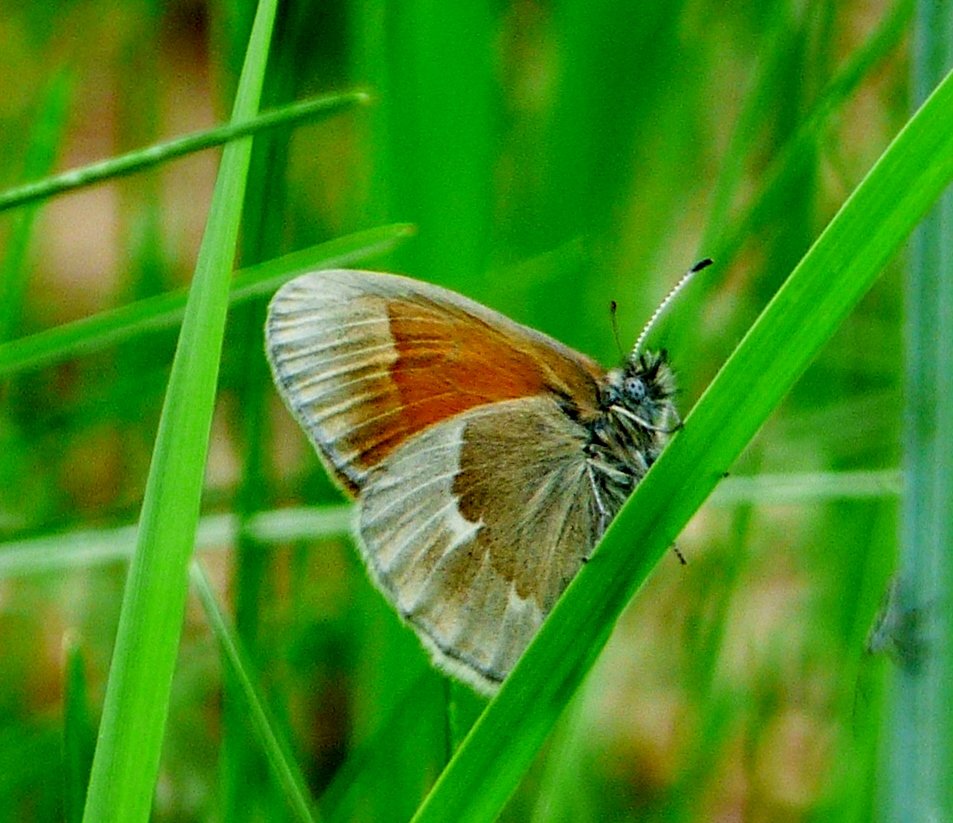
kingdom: Animalia
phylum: Arthropoda
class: Insecta
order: Lepidoptera
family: Nymphalidae
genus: Coenonympha
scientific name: Coenonympha tullia
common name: Large Heath
